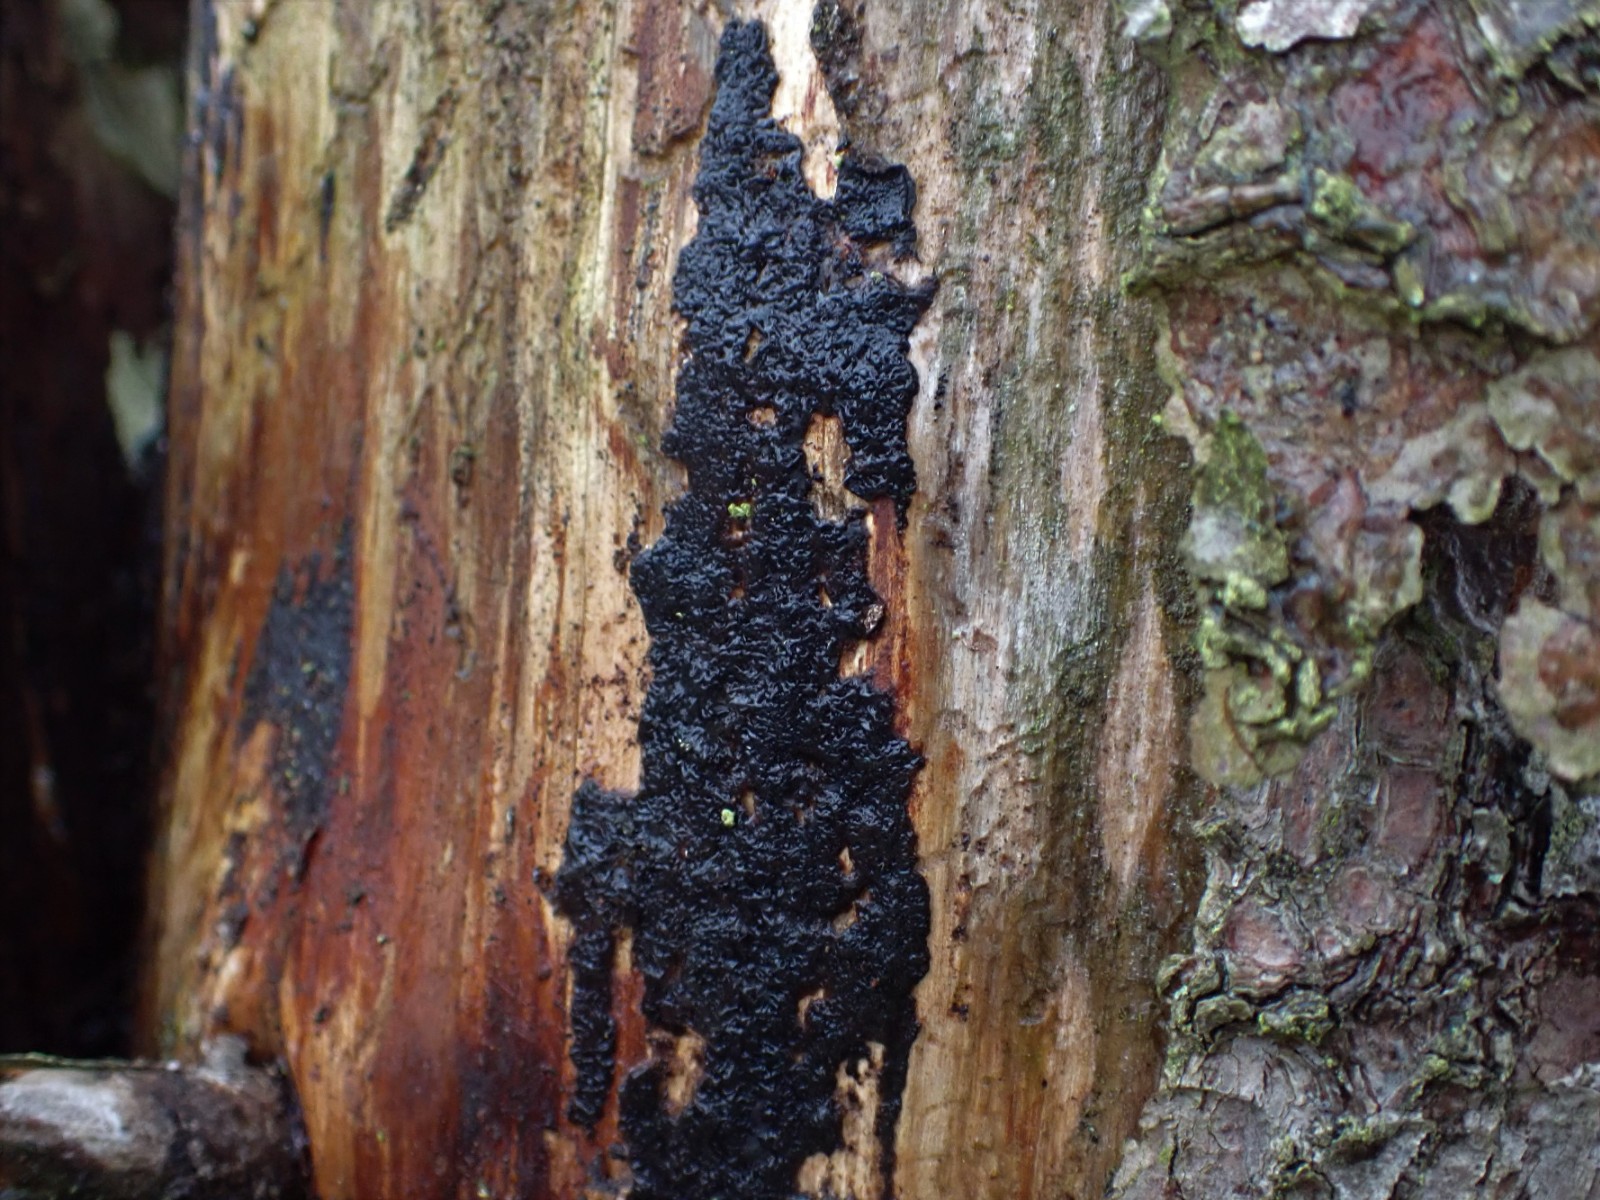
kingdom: Fungi
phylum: Basidiomycota
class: Agaricomycetes
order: Auriculariales
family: Auriculariaceae
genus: Exidia
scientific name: Exidia pithya
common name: gran-bævretop
